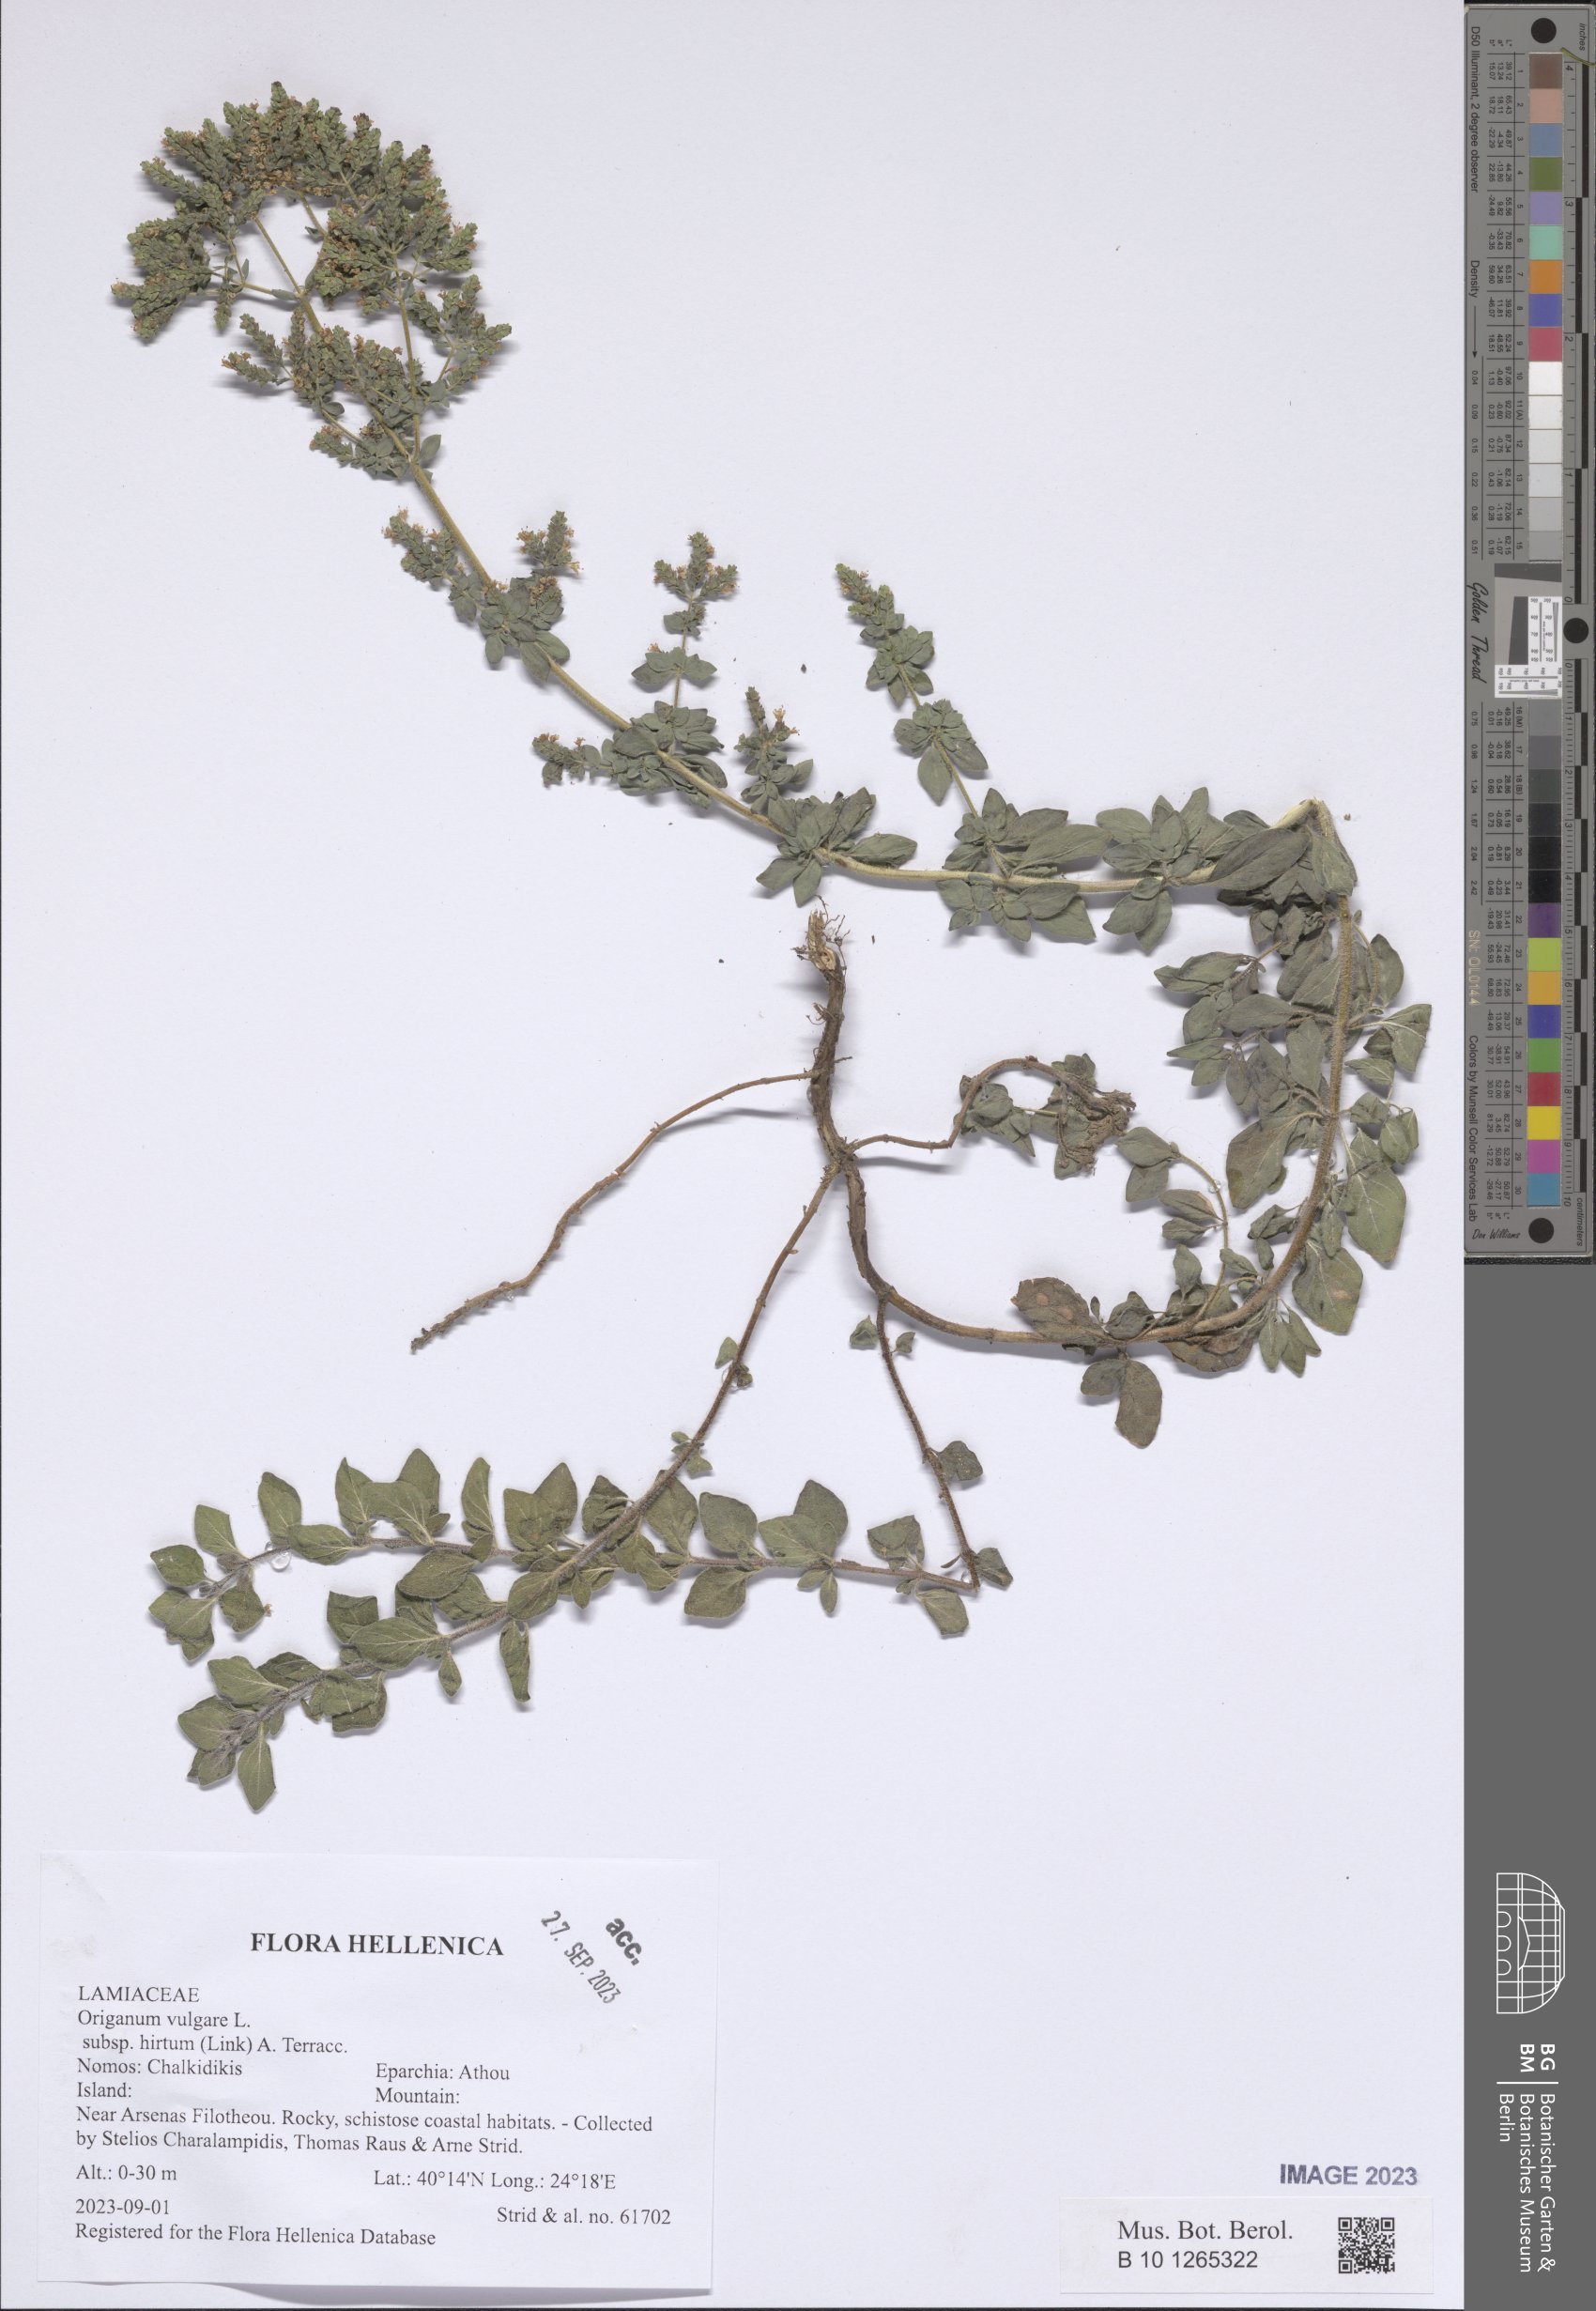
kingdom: Plantae
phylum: Tracheophyta
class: Magnoliopsida
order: Lamiales
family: Lamiaceae
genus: Origanum
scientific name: Origanum vulgare
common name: Wild marjoram
